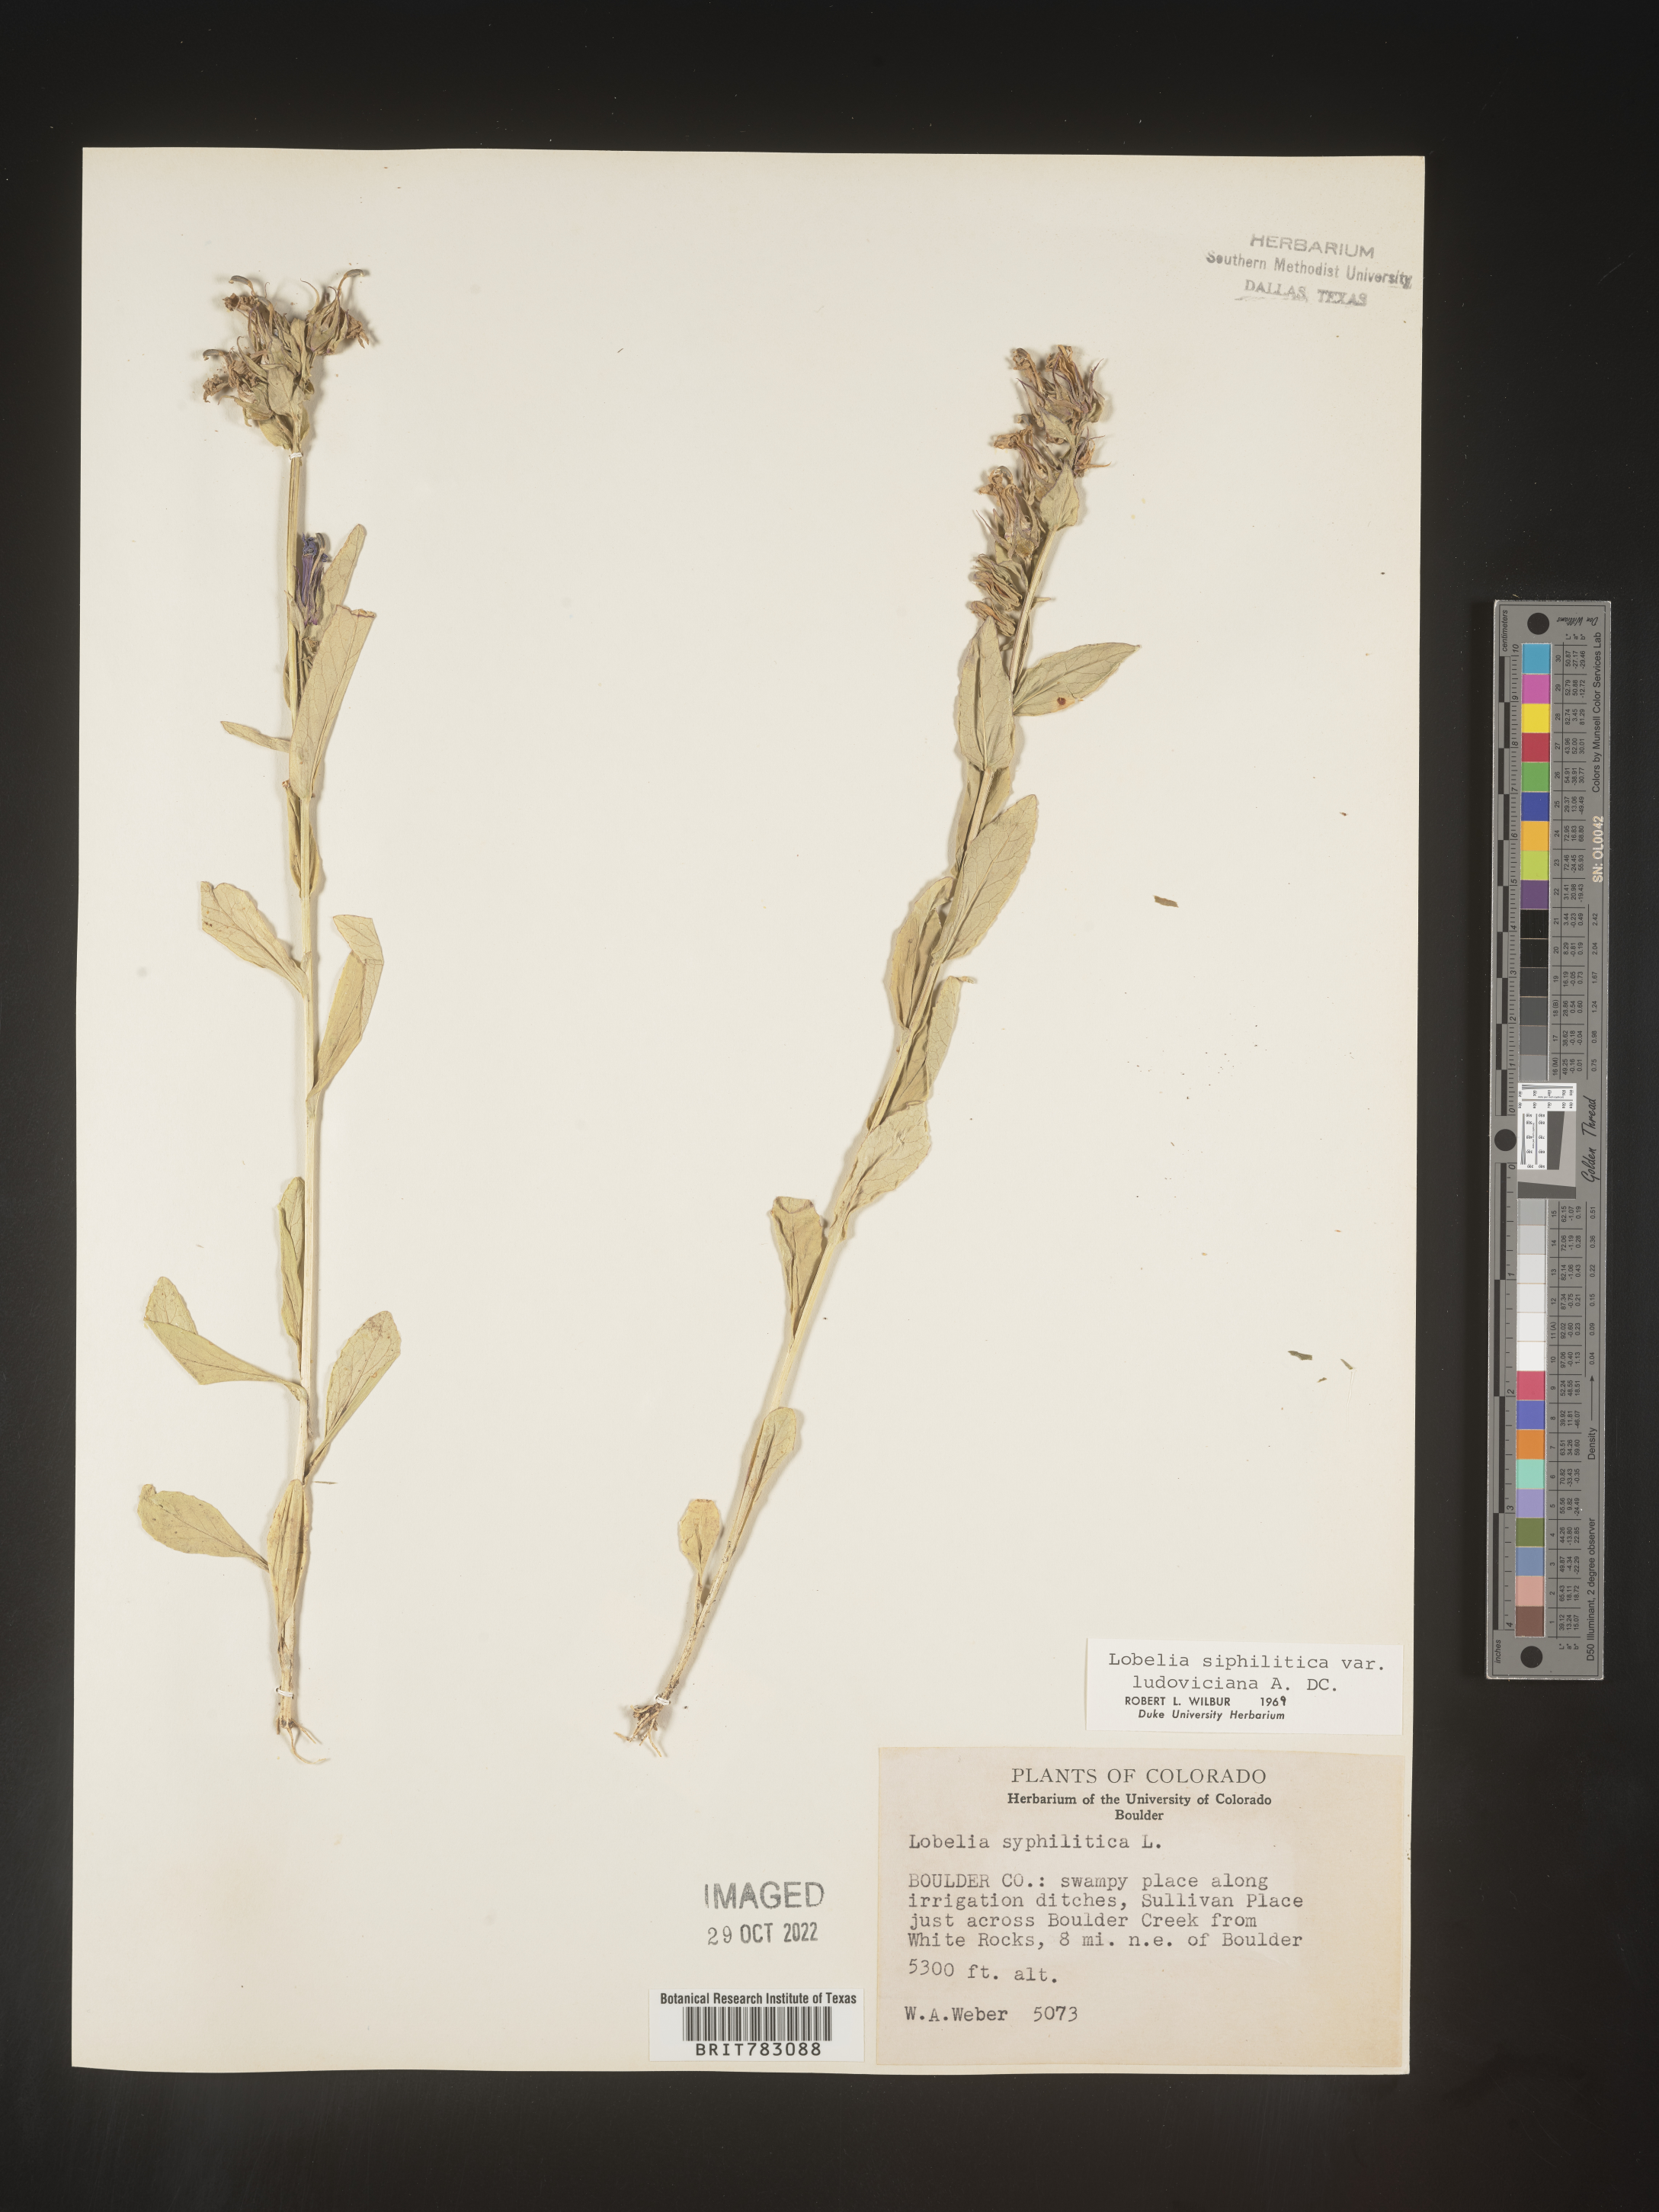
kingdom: Plantae
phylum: Tracheophyta
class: Magnoliopsida
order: Asterales
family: Campanulaceae
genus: Lobelia
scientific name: Lobelia siphilitica
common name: Great lobelia
